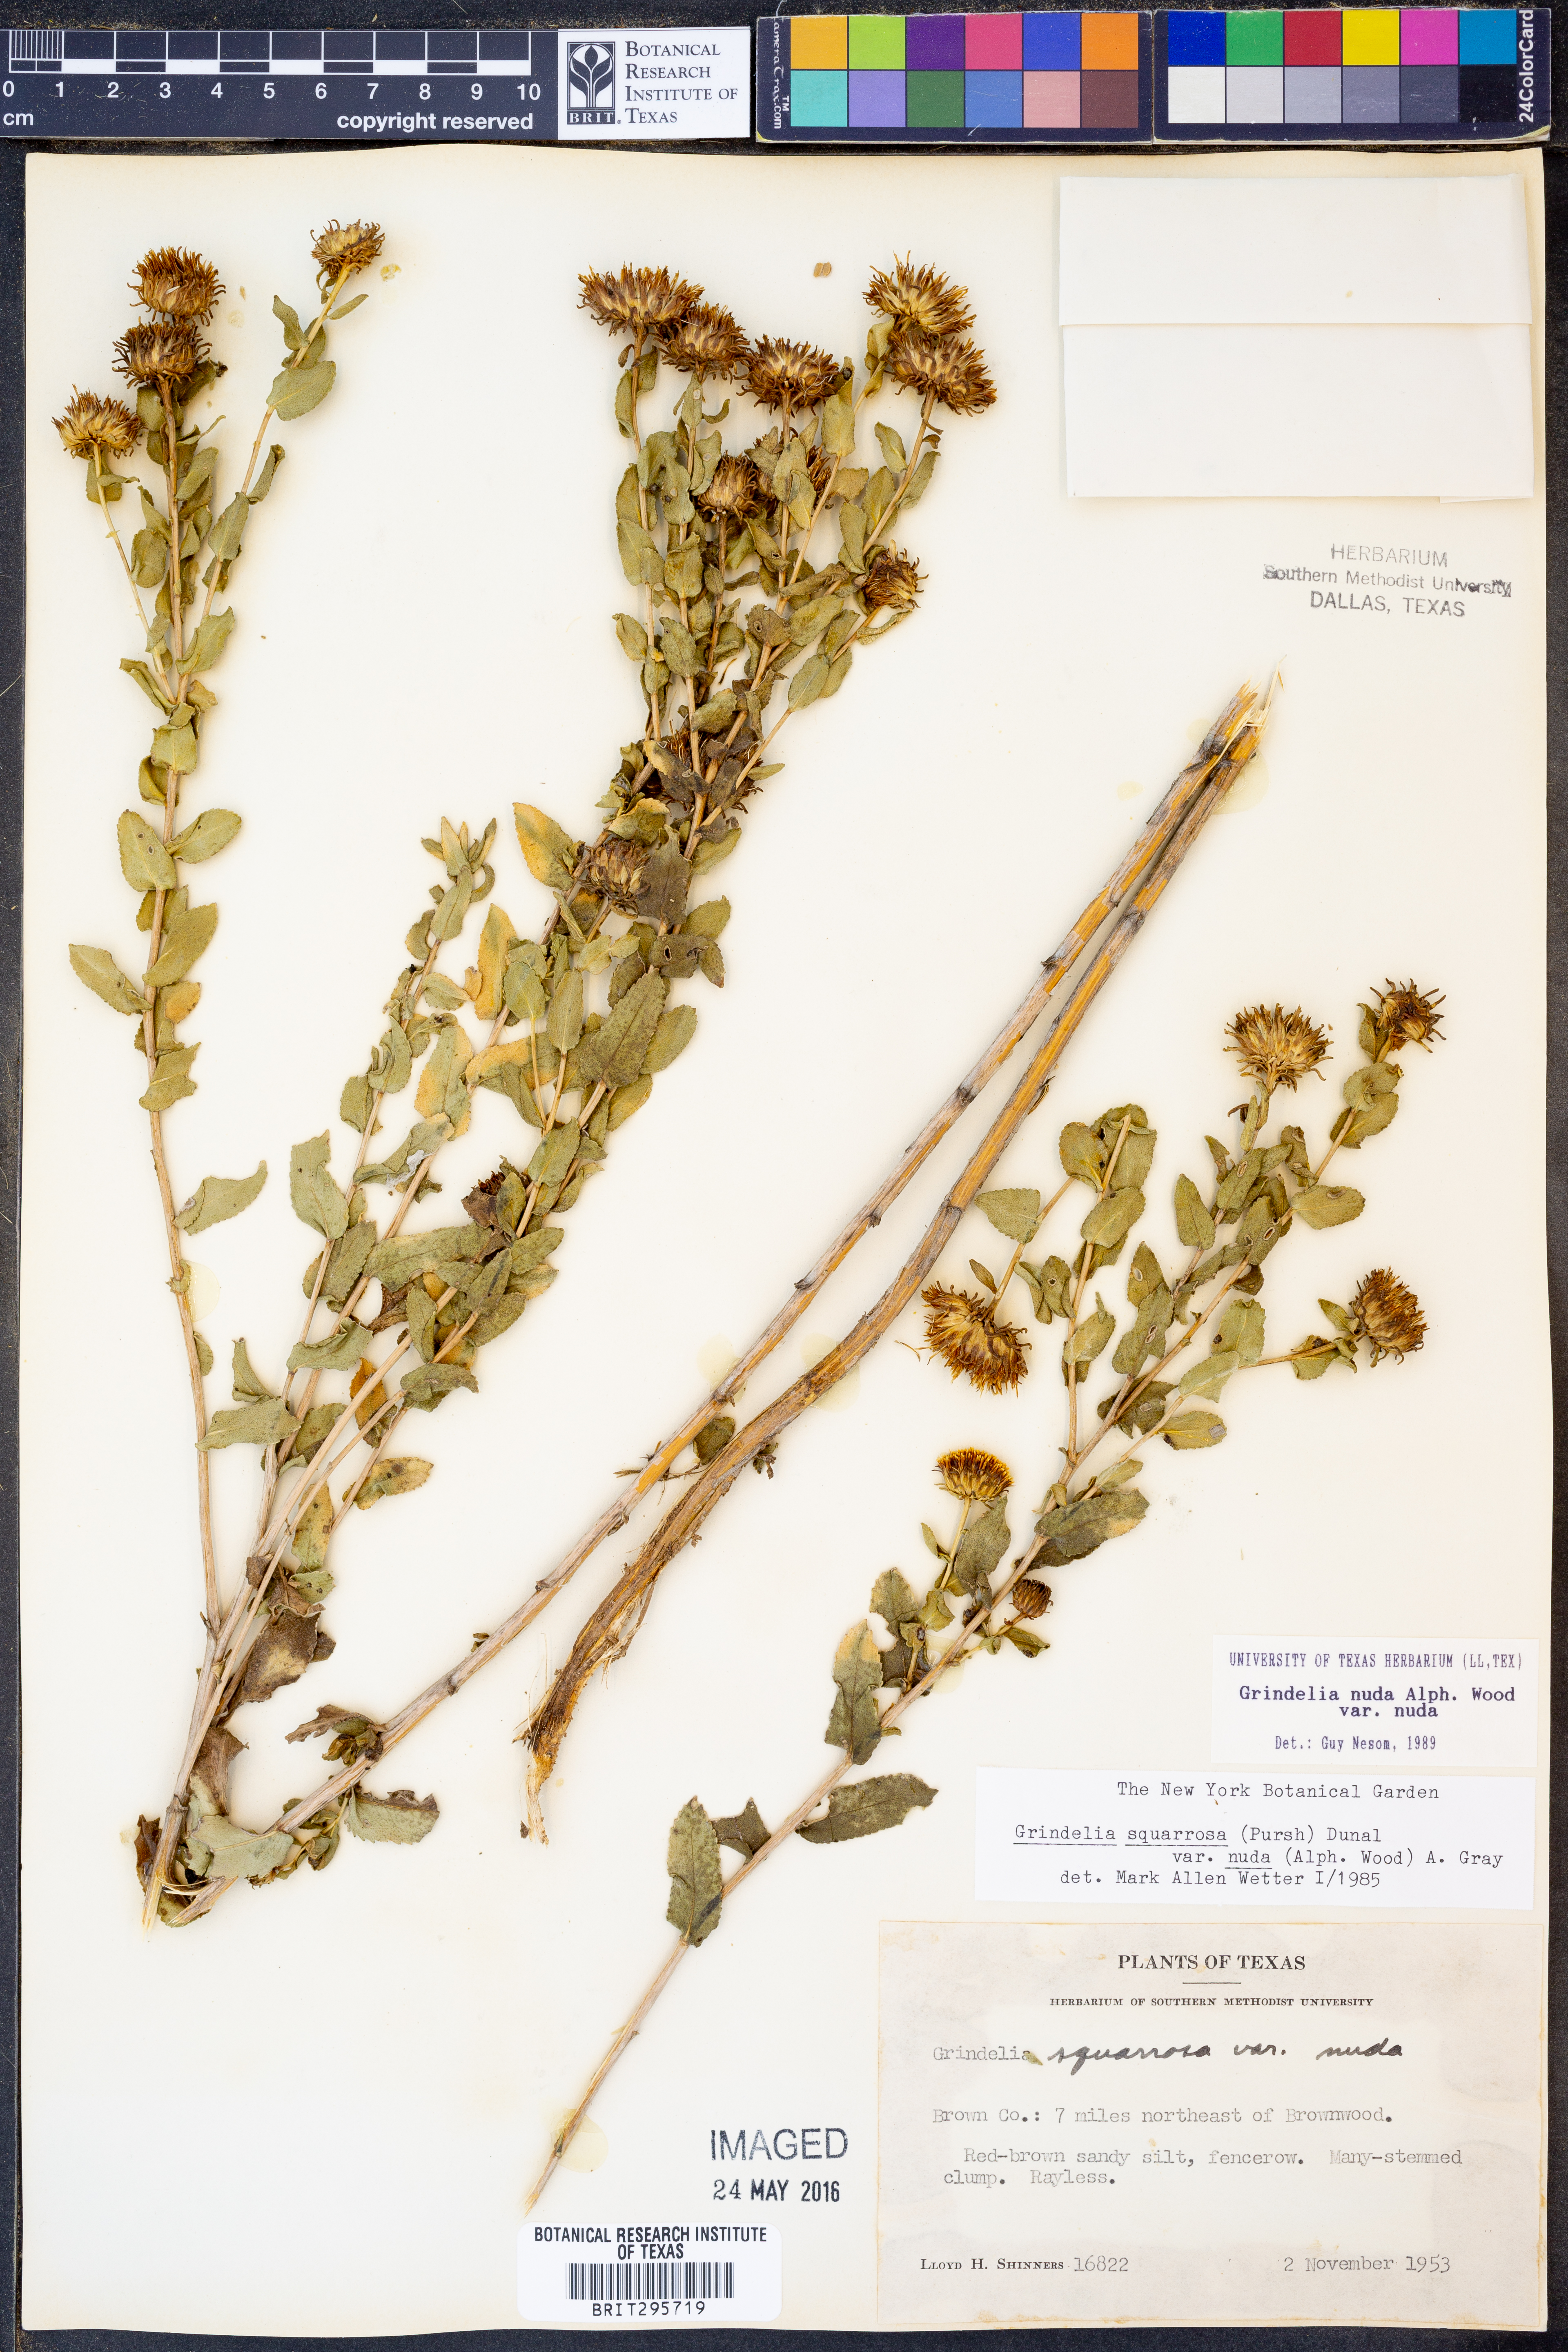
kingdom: Plantae
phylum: Tracheophyta
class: Magnoliopsida
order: Asterales
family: Asteraceae
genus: Grindelia
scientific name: Grindelia nuda
